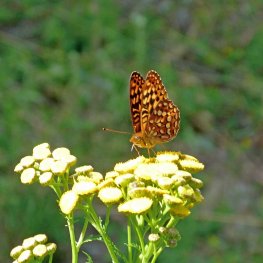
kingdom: Animalia
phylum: Arthropoda
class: Insecta
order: Lepidoptera
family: Nymphalidae
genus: Speyeria
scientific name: Speyeria hydaspe
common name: Hydaspe Fritillary
